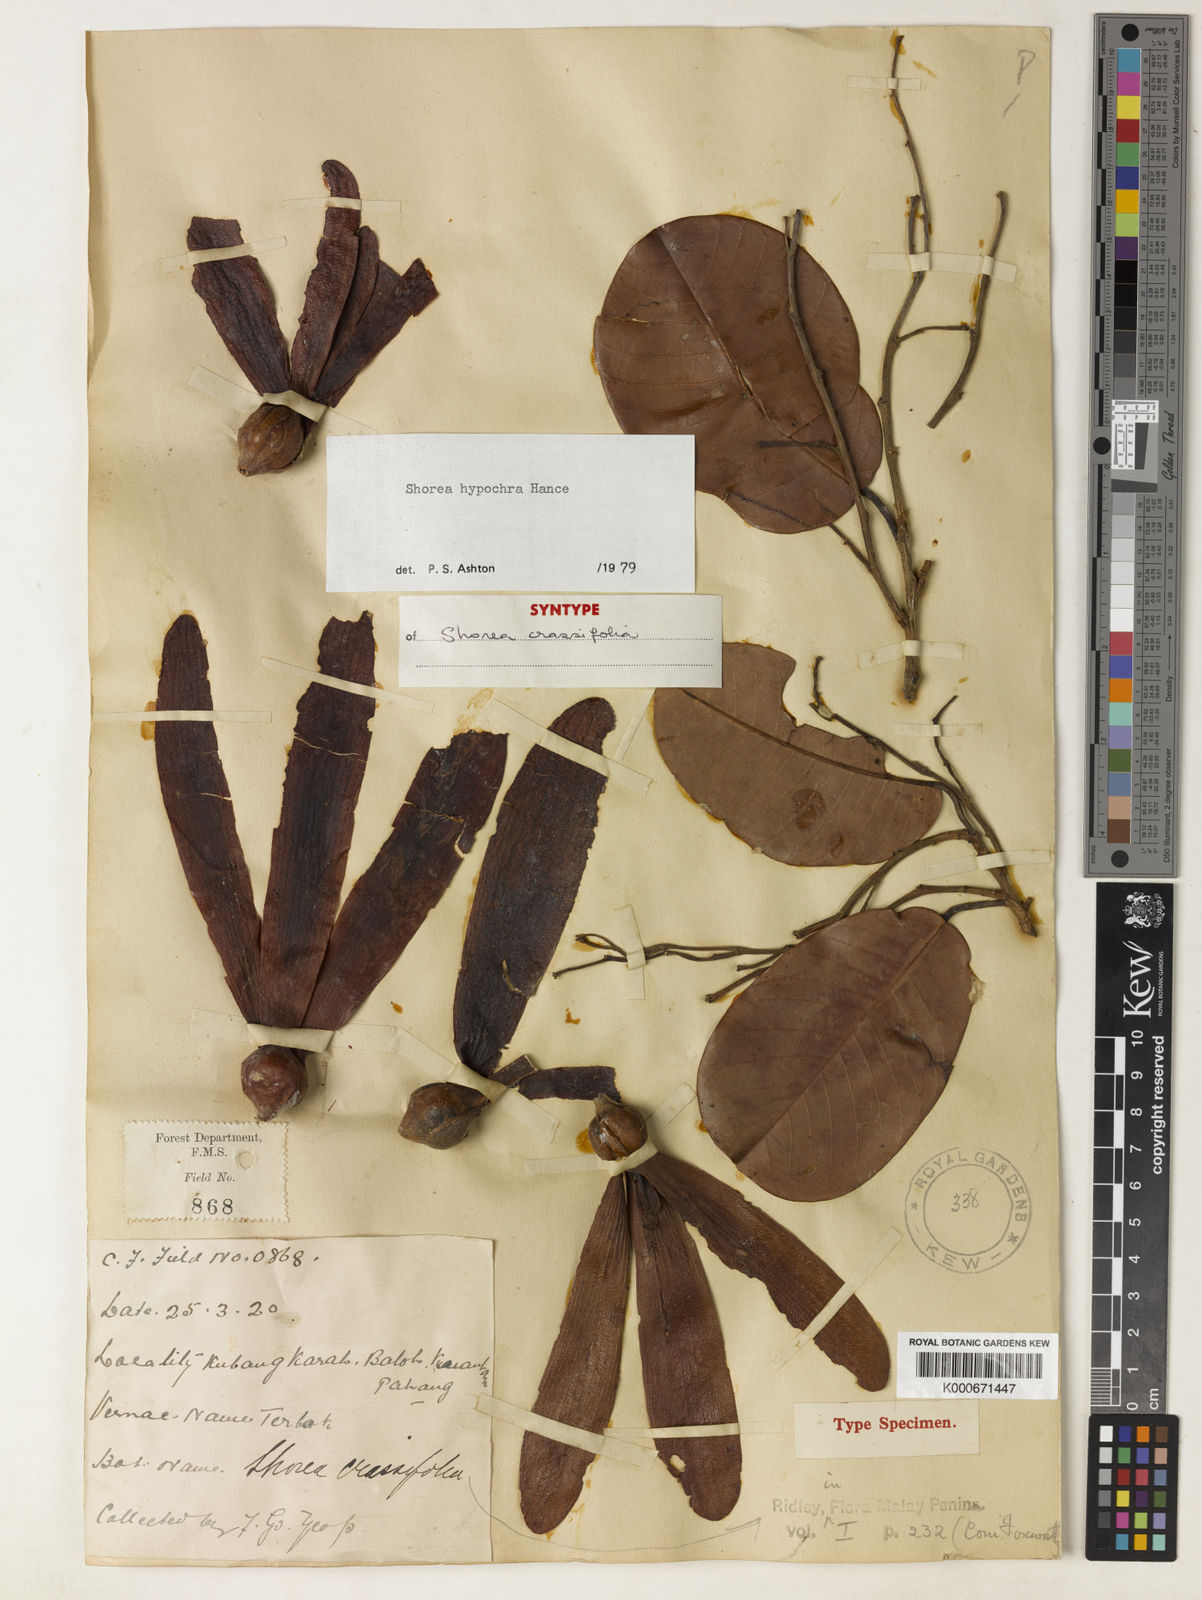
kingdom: Plantae
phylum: Tracheophyta
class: Magnoliopsida
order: Malvales
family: Dipterocarpaceae
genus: Anthoshorea
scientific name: Anthoshorea hypochra
